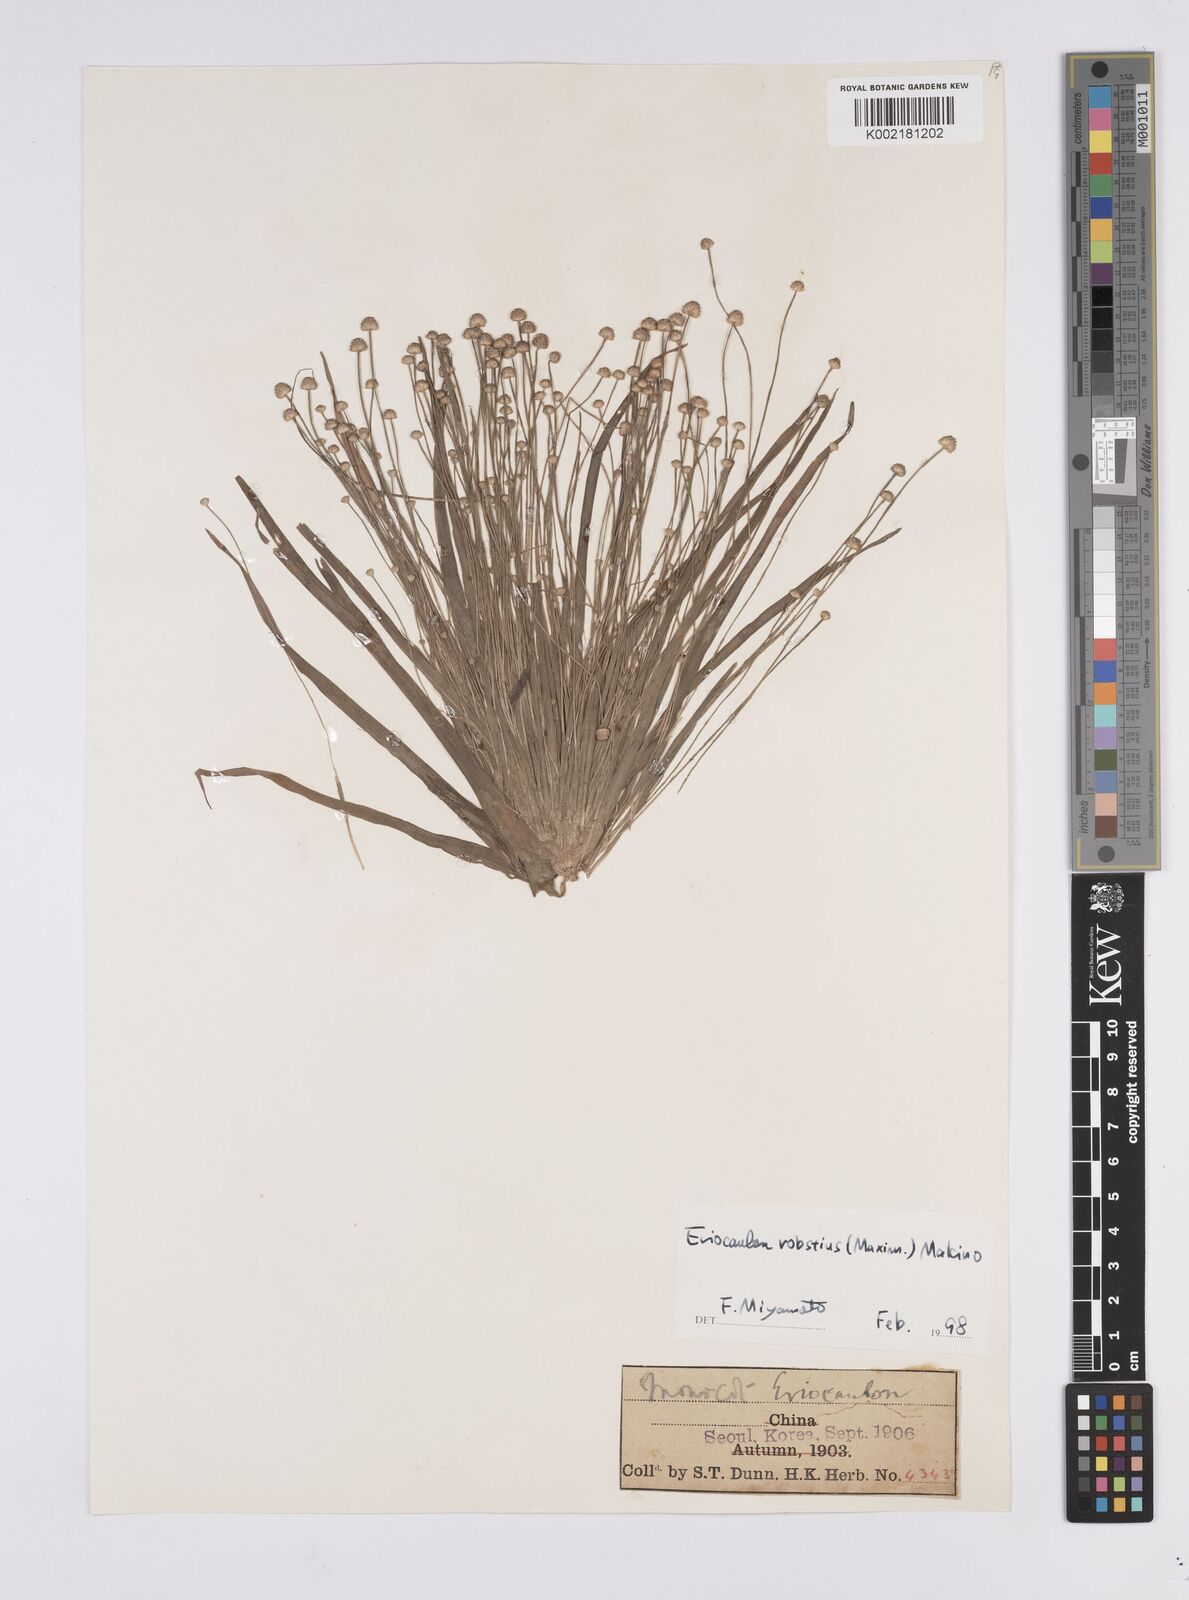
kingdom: Plantae
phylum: Tracheophyta
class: Liliopsida
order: Poales
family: Eriocaulaceae
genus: Eriocaulon
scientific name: Eriocaulon alpestre
